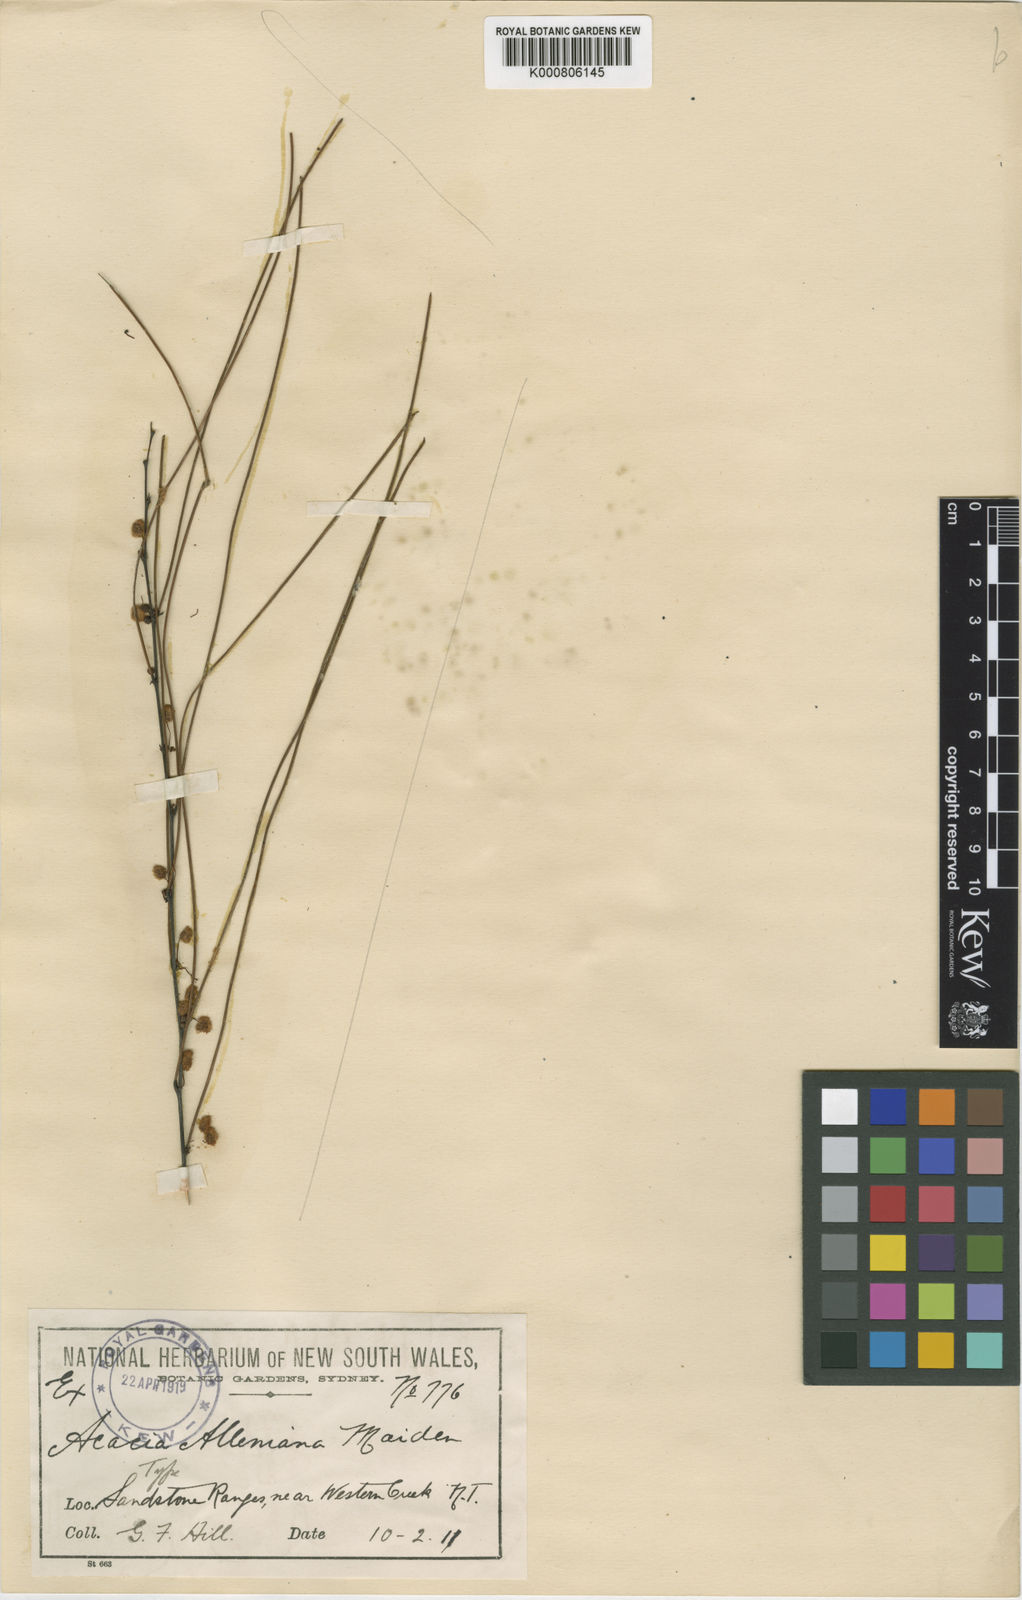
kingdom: Plantae
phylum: Tracheophyta
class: Magnoliopsida
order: Fabales
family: Fabaceae
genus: Acacia
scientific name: Acacia alleniana
